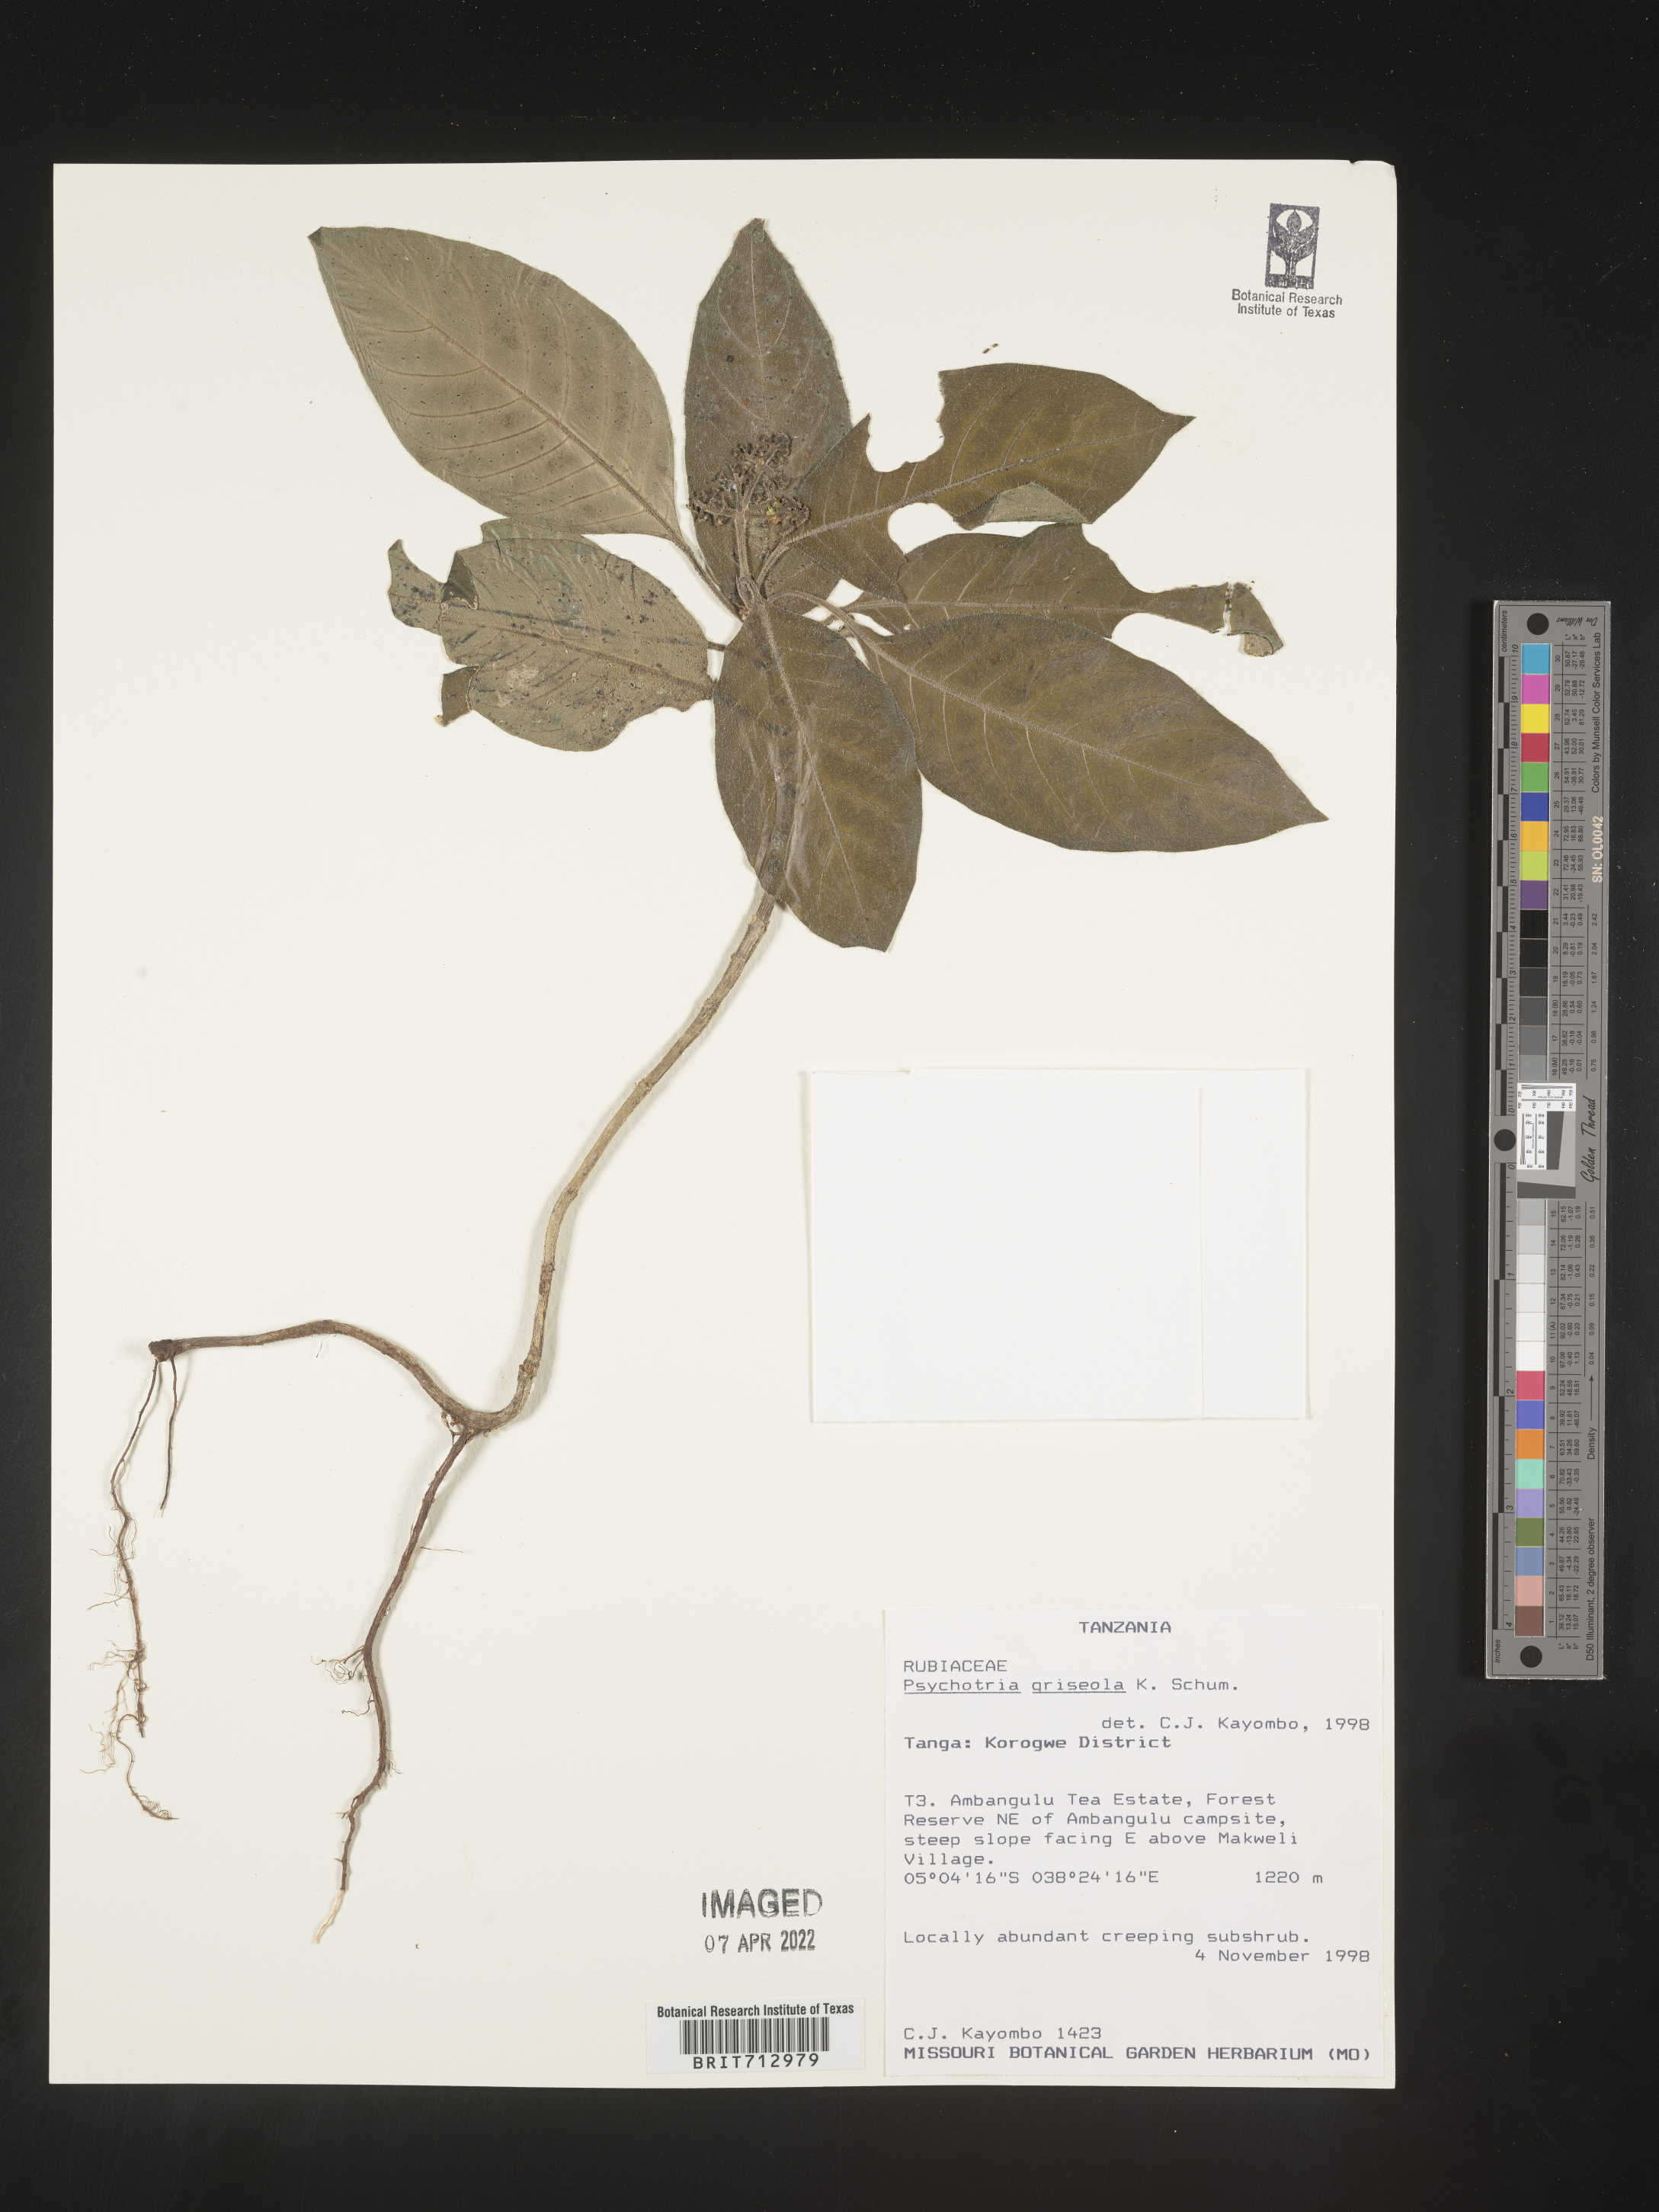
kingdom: Plantae
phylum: Tracheophyta
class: Magnoliopsida
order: Gentianales
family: Rubiaceae
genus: Psychotria
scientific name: Psychotria
